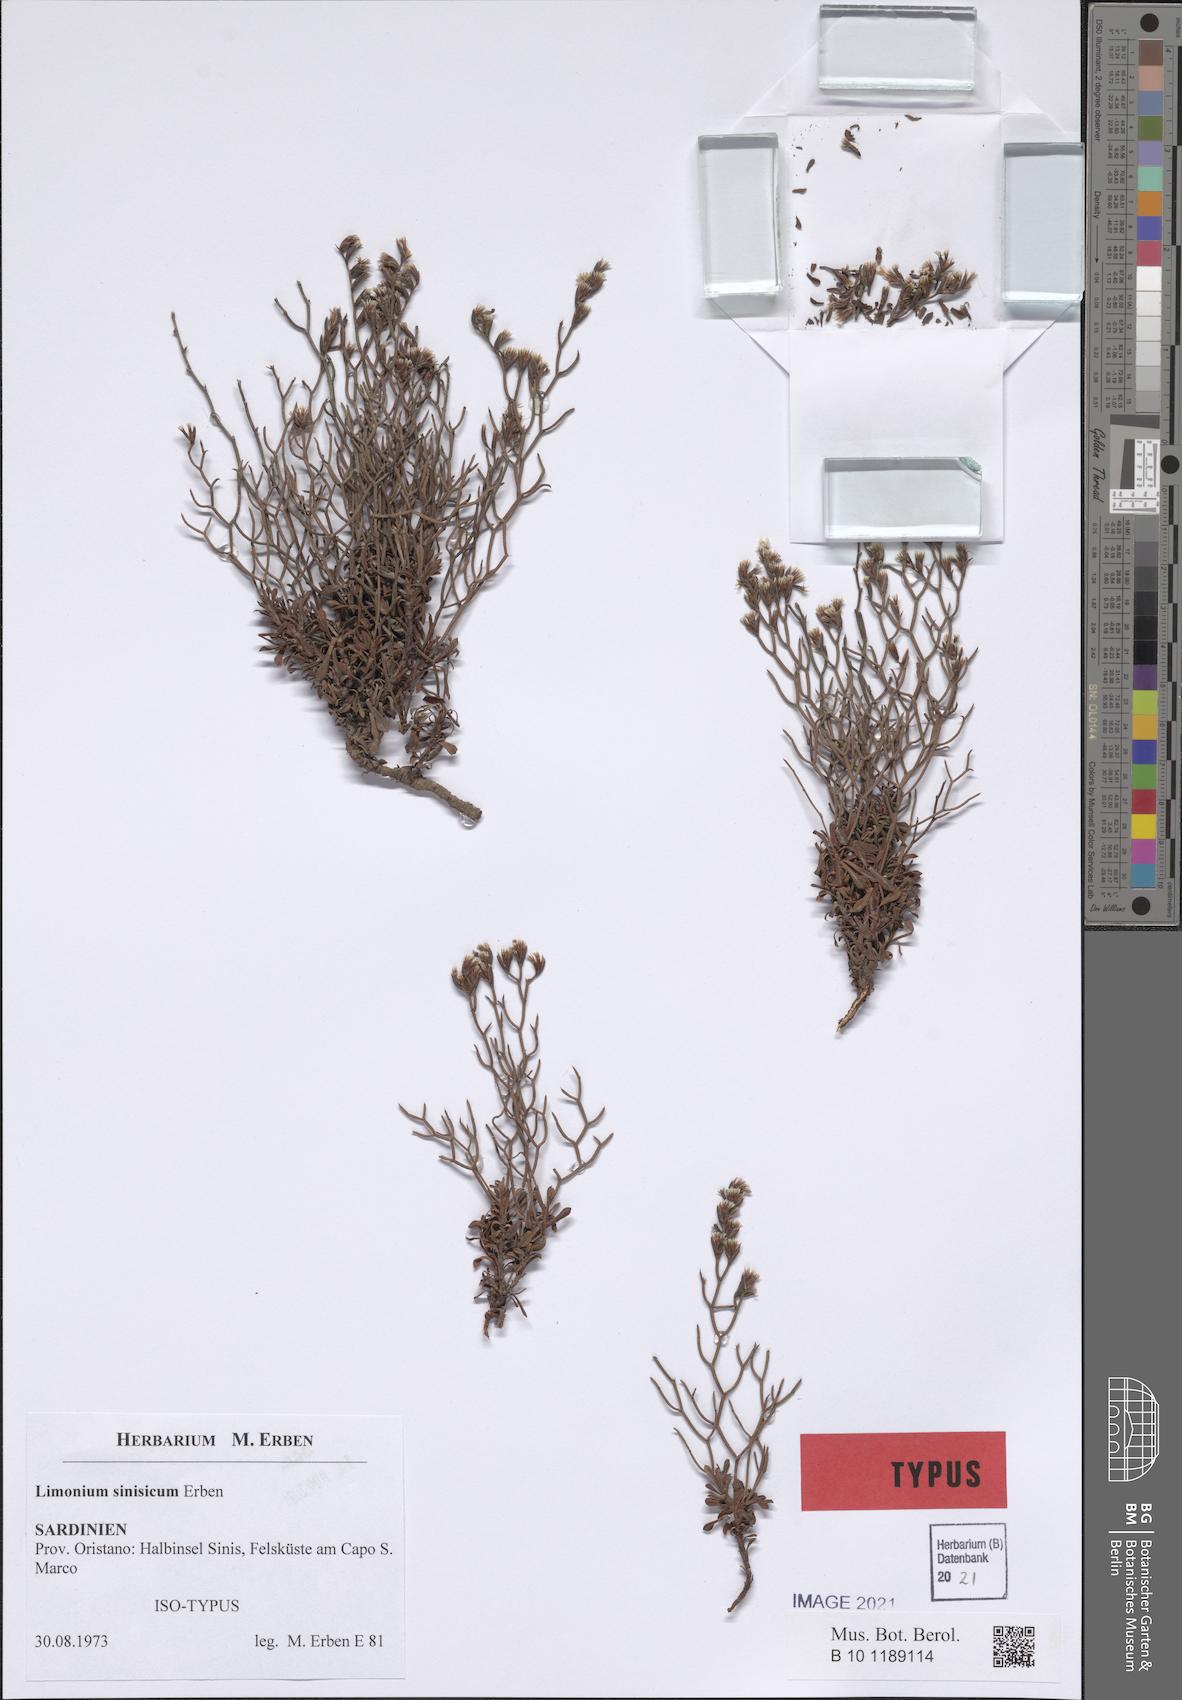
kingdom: Plantae
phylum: Tracheophyta
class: Magnoliopsida
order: Caryophyllales
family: Plumbaginaceae
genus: Limonium
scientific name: Limonium acutifolium
